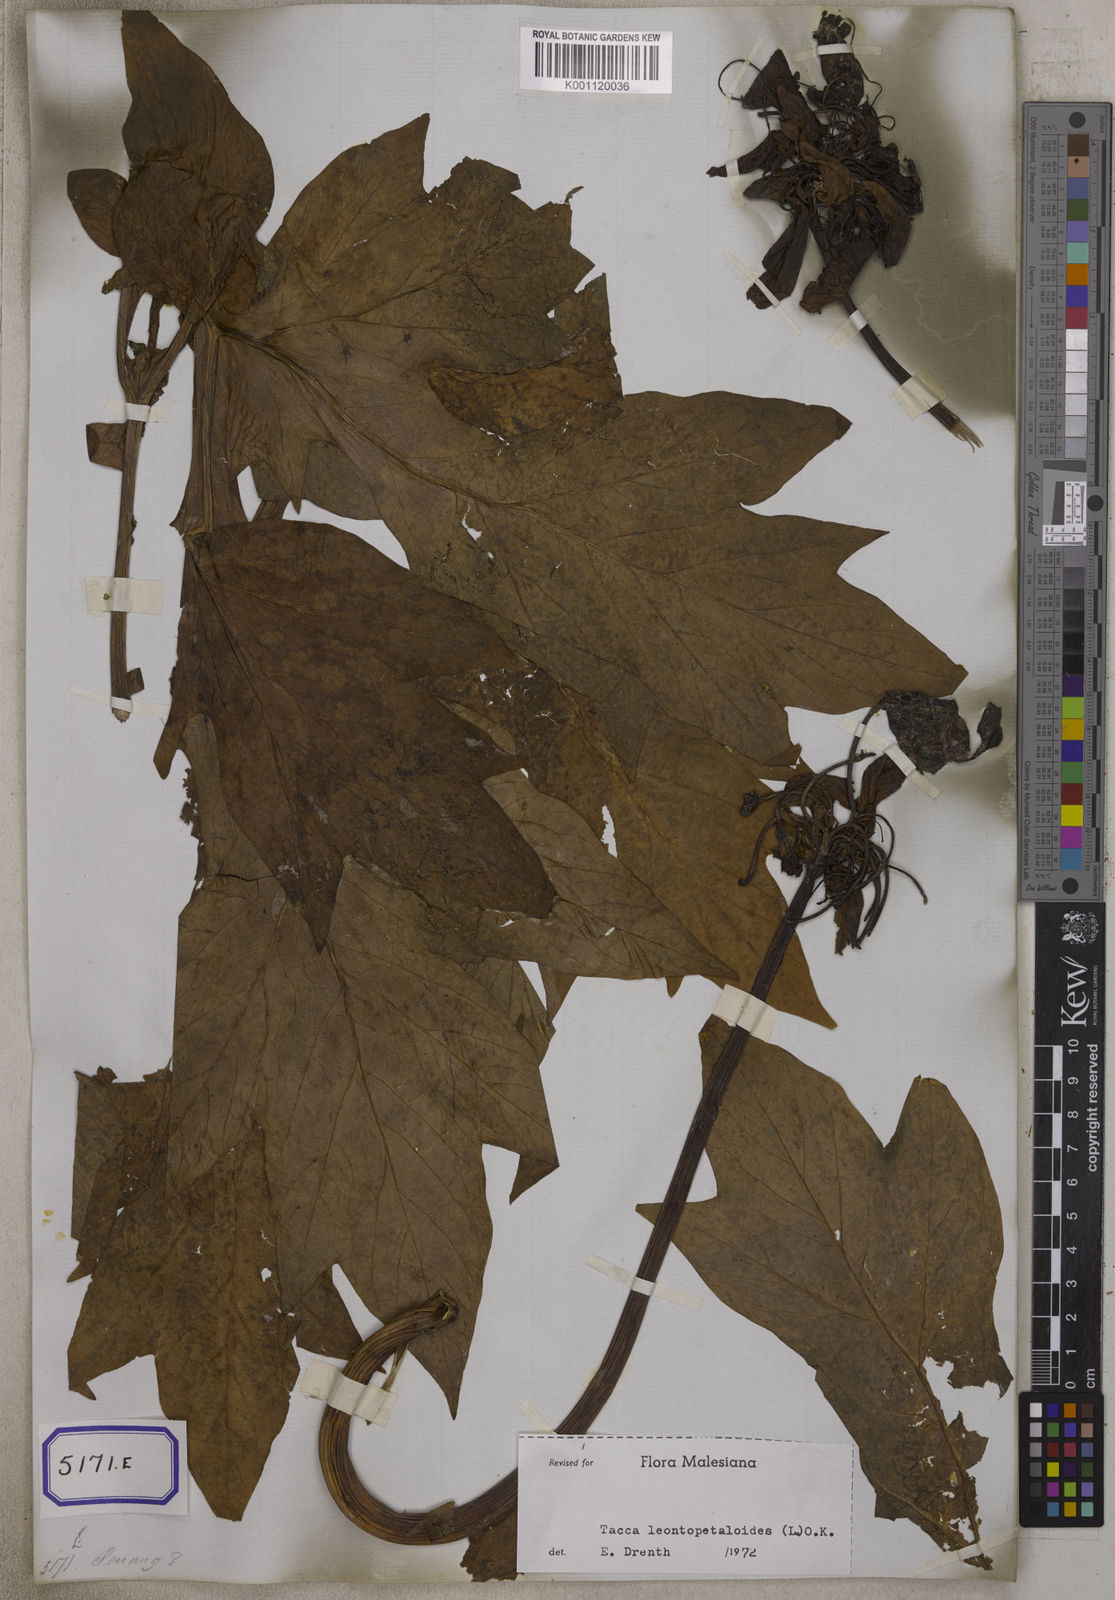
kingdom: Plantae
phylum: Tracheophyta
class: Liliopsida
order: Dioscoreales
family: Dioscoreaceae
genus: Tacca
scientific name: Tacca
